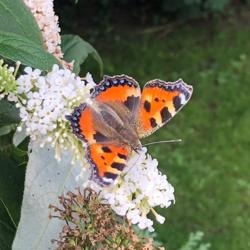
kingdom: Animalia
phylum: Arthropoda
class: Insecta
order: Lepidoptera
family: Nymphalidae
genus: Aglais
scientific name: Aglais urticae
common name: Nældens takvinge
